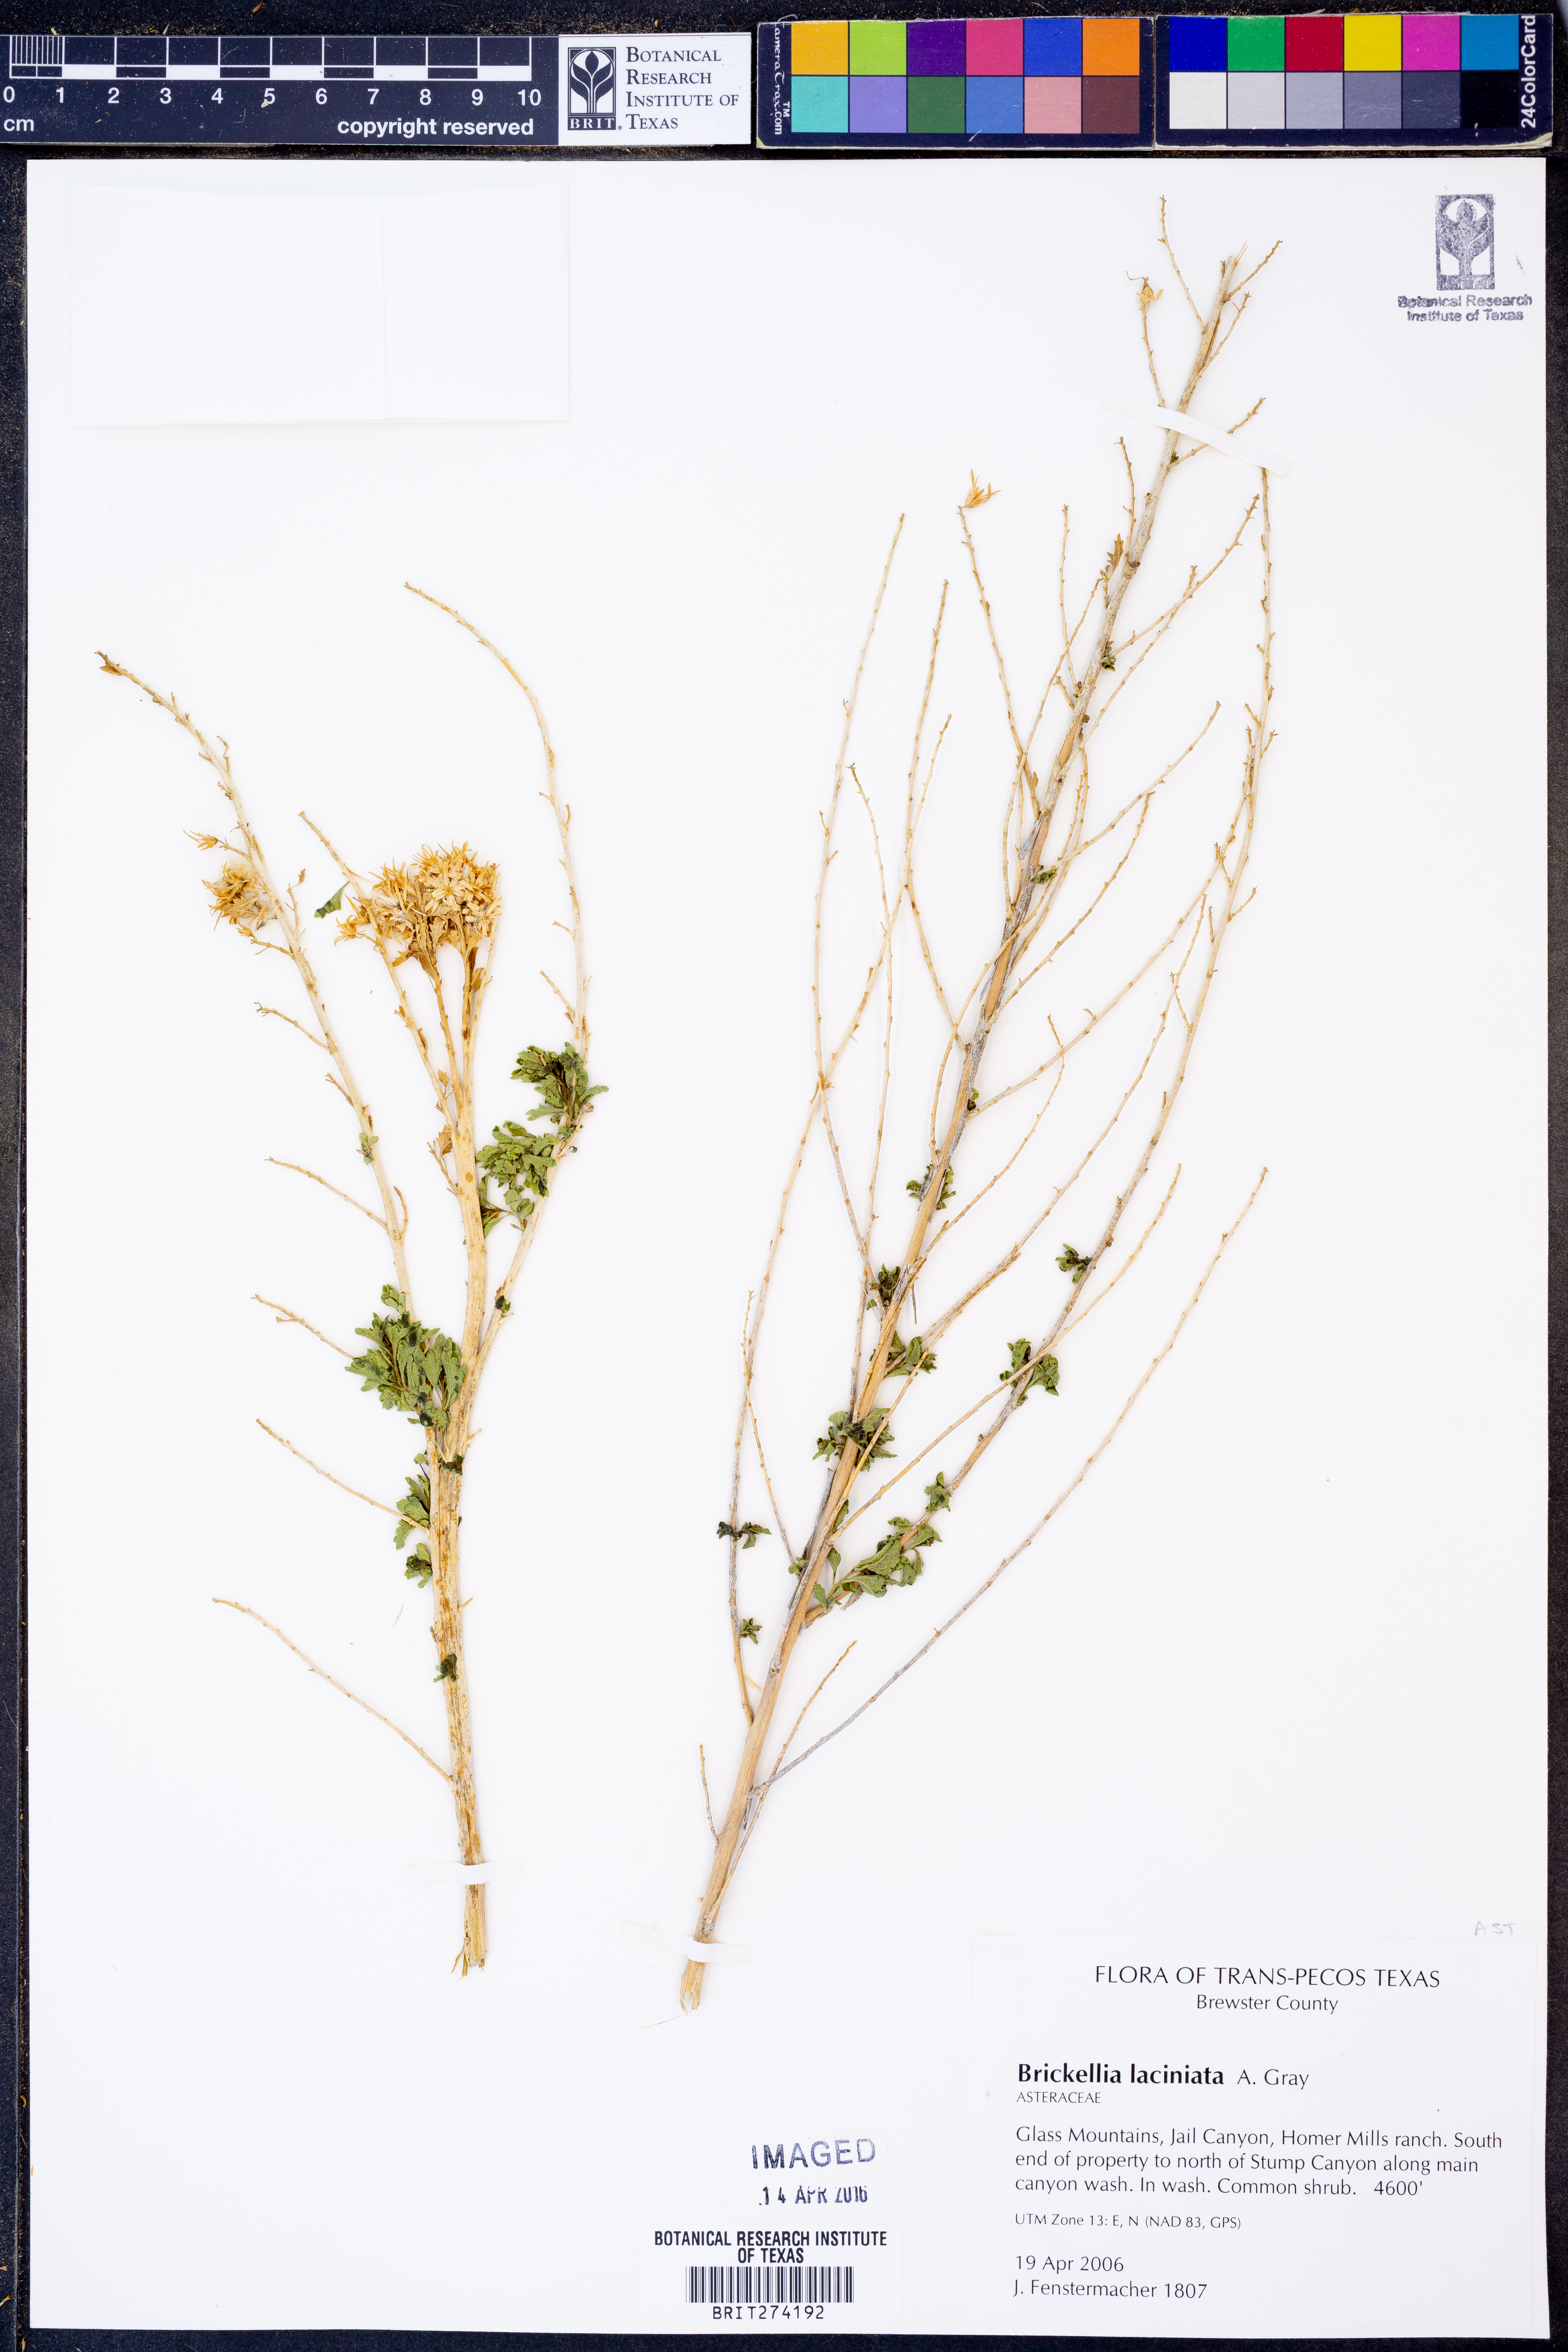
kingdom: Plantae
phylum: Tracheophyta
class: Magnoliopsida
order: Asterales
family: Asteraceae
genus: Brickellia
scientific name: Brickellia laciniata
